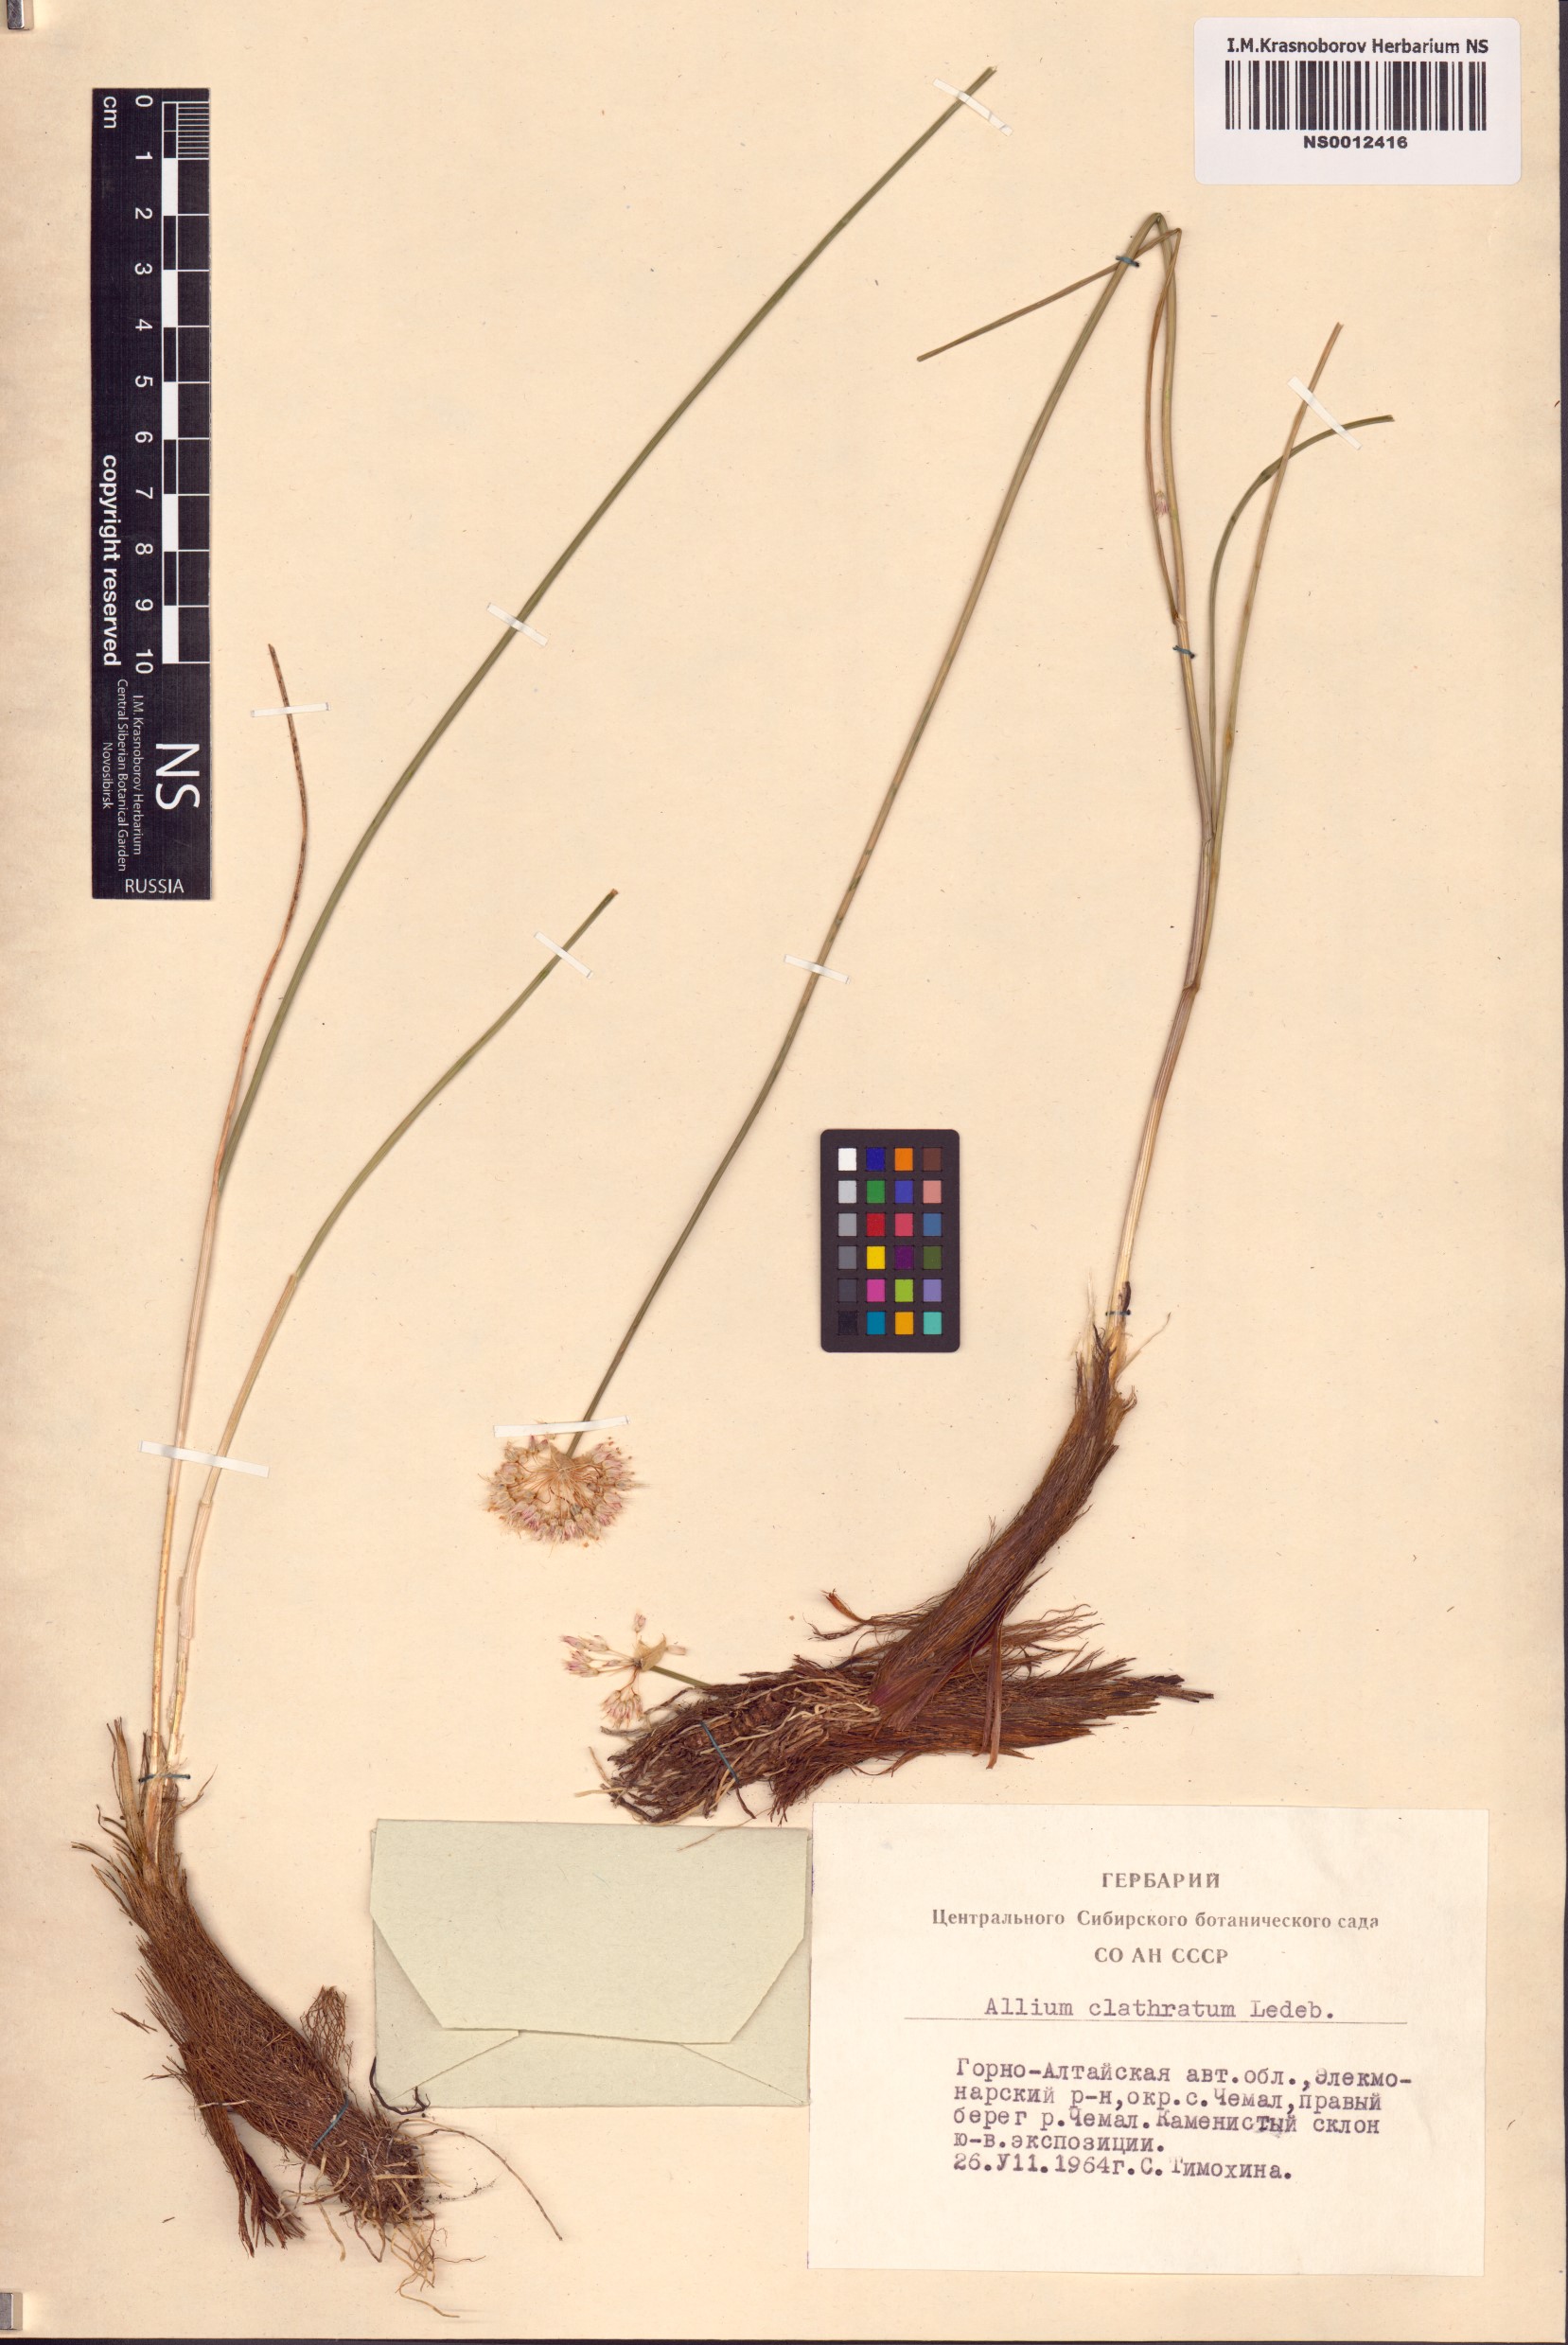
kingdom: Plantae
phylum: Tracheophyta
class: Liliopsida
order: Asparagales
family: Amaryllidaceae
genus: Allium
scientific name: Allium clathratum
